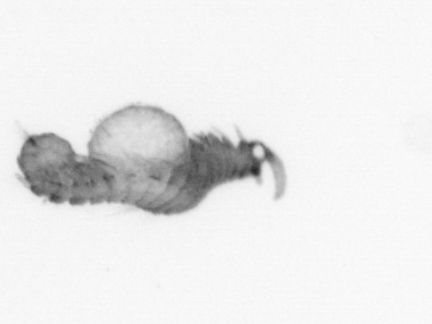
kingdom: Animalia
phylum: Annelida
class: Polychaeta
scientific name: Polychaeta
